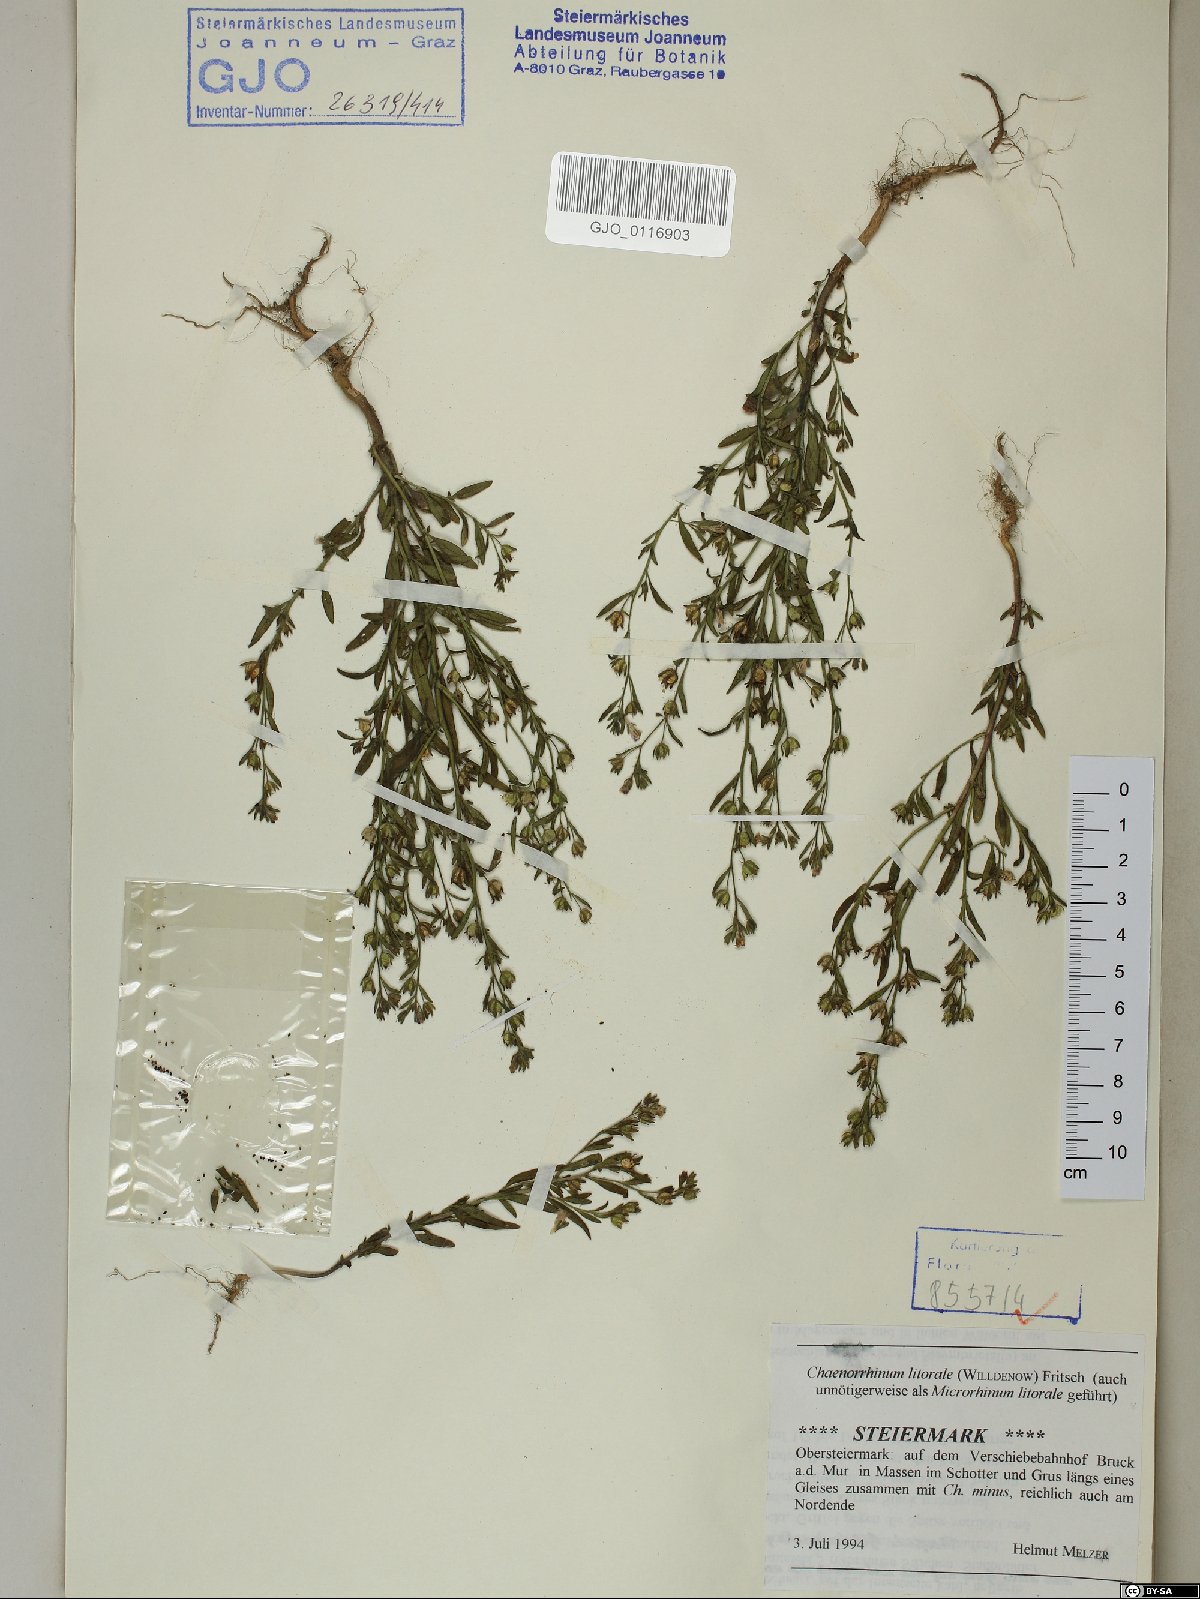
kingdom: Plantae
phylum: Tracheophyta
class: Magnoliopsida
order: Lamiales
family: Plantaginaceae
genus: Chaenorhinum
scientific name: Chaenorhinum litorale
